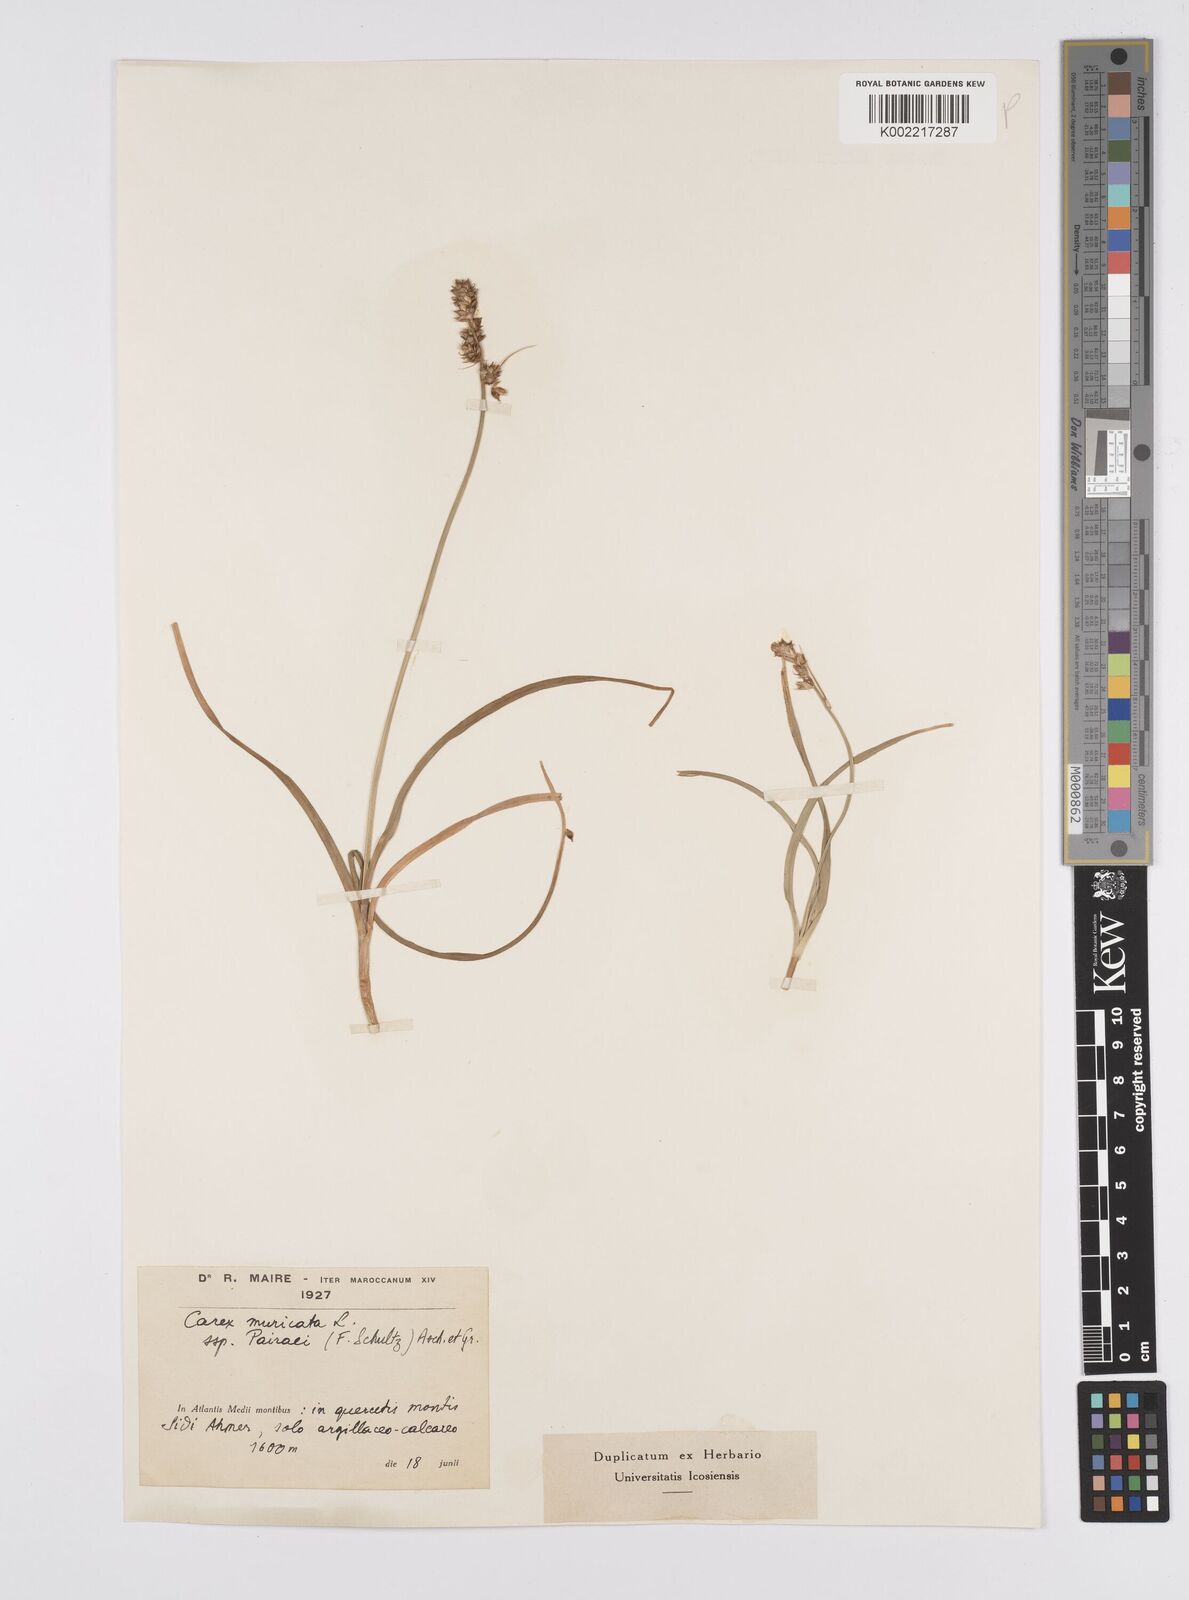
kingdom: Plantae
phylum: Tracheophyta
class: Liliopsida
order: Poales
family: Cyperaceae
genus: Carex
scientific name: Carex muricata
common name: Rough sedge
